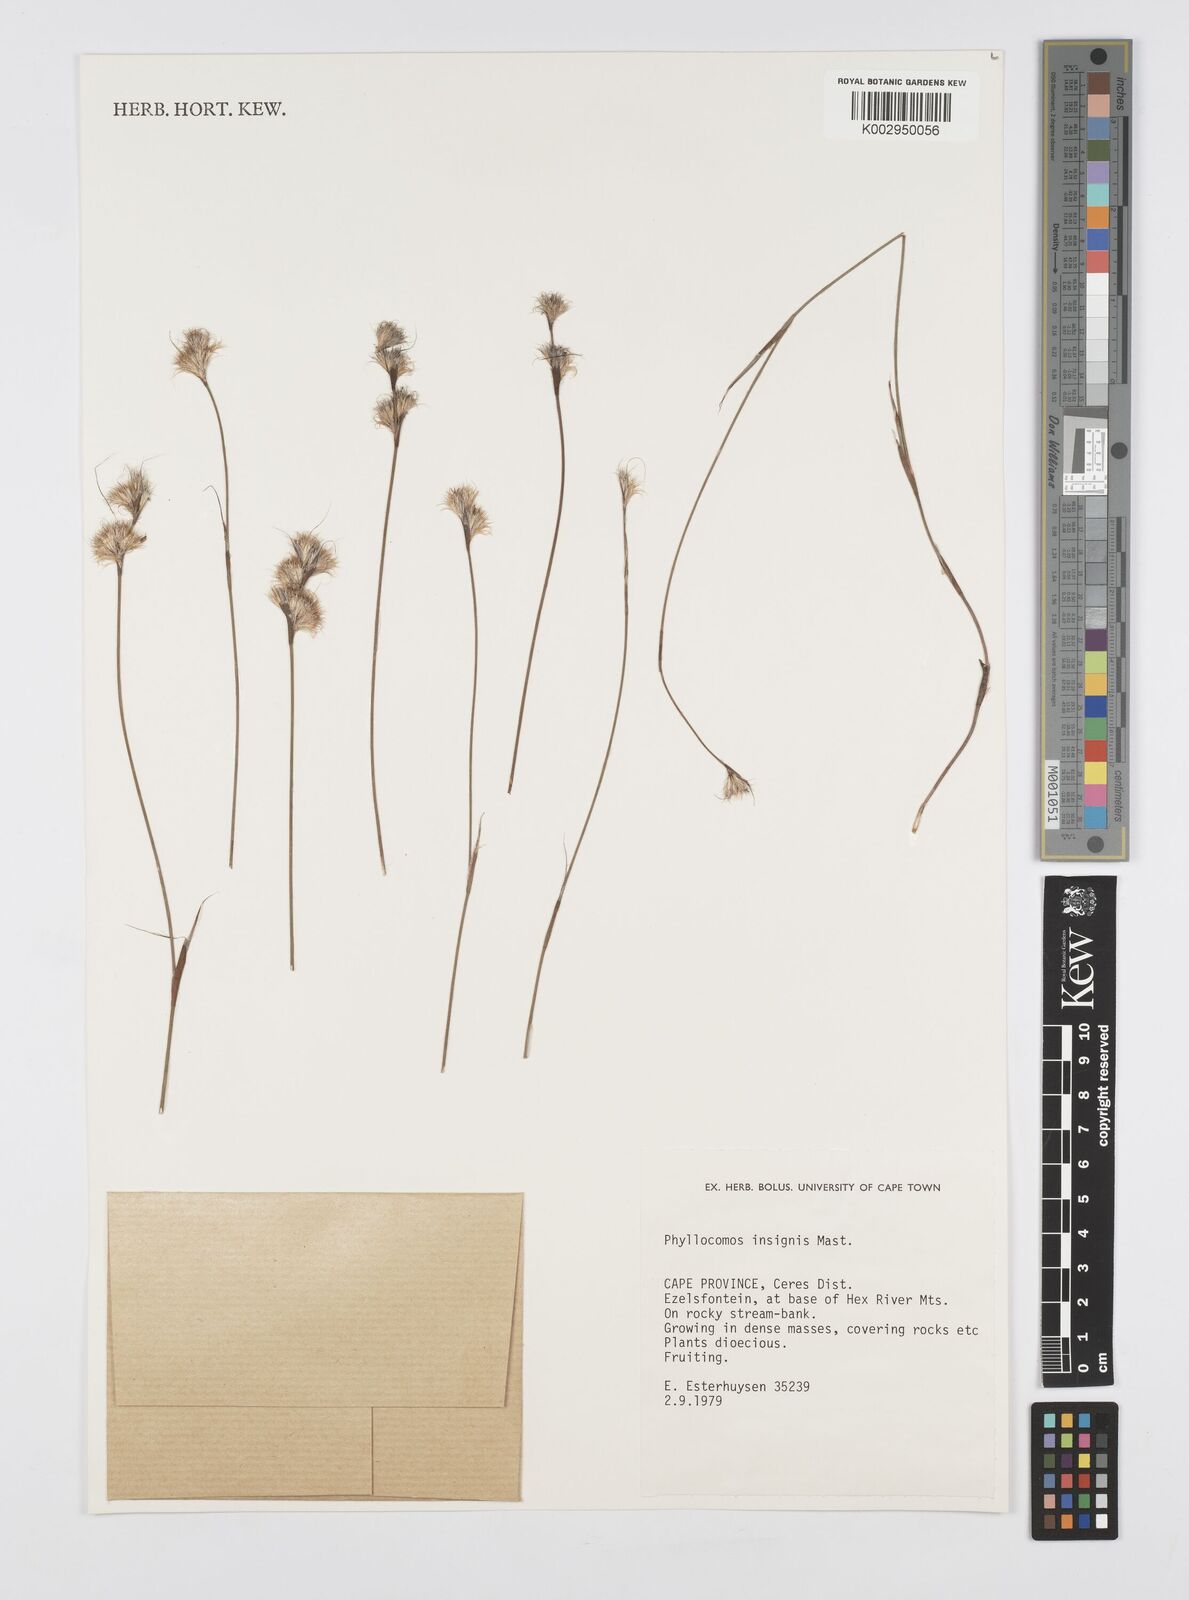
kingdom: Plantae
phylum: Tracheophyta
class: Liliopsida
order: Poales
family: Restionaceae
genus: Anthochortus
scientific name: Anthochortus insignis
